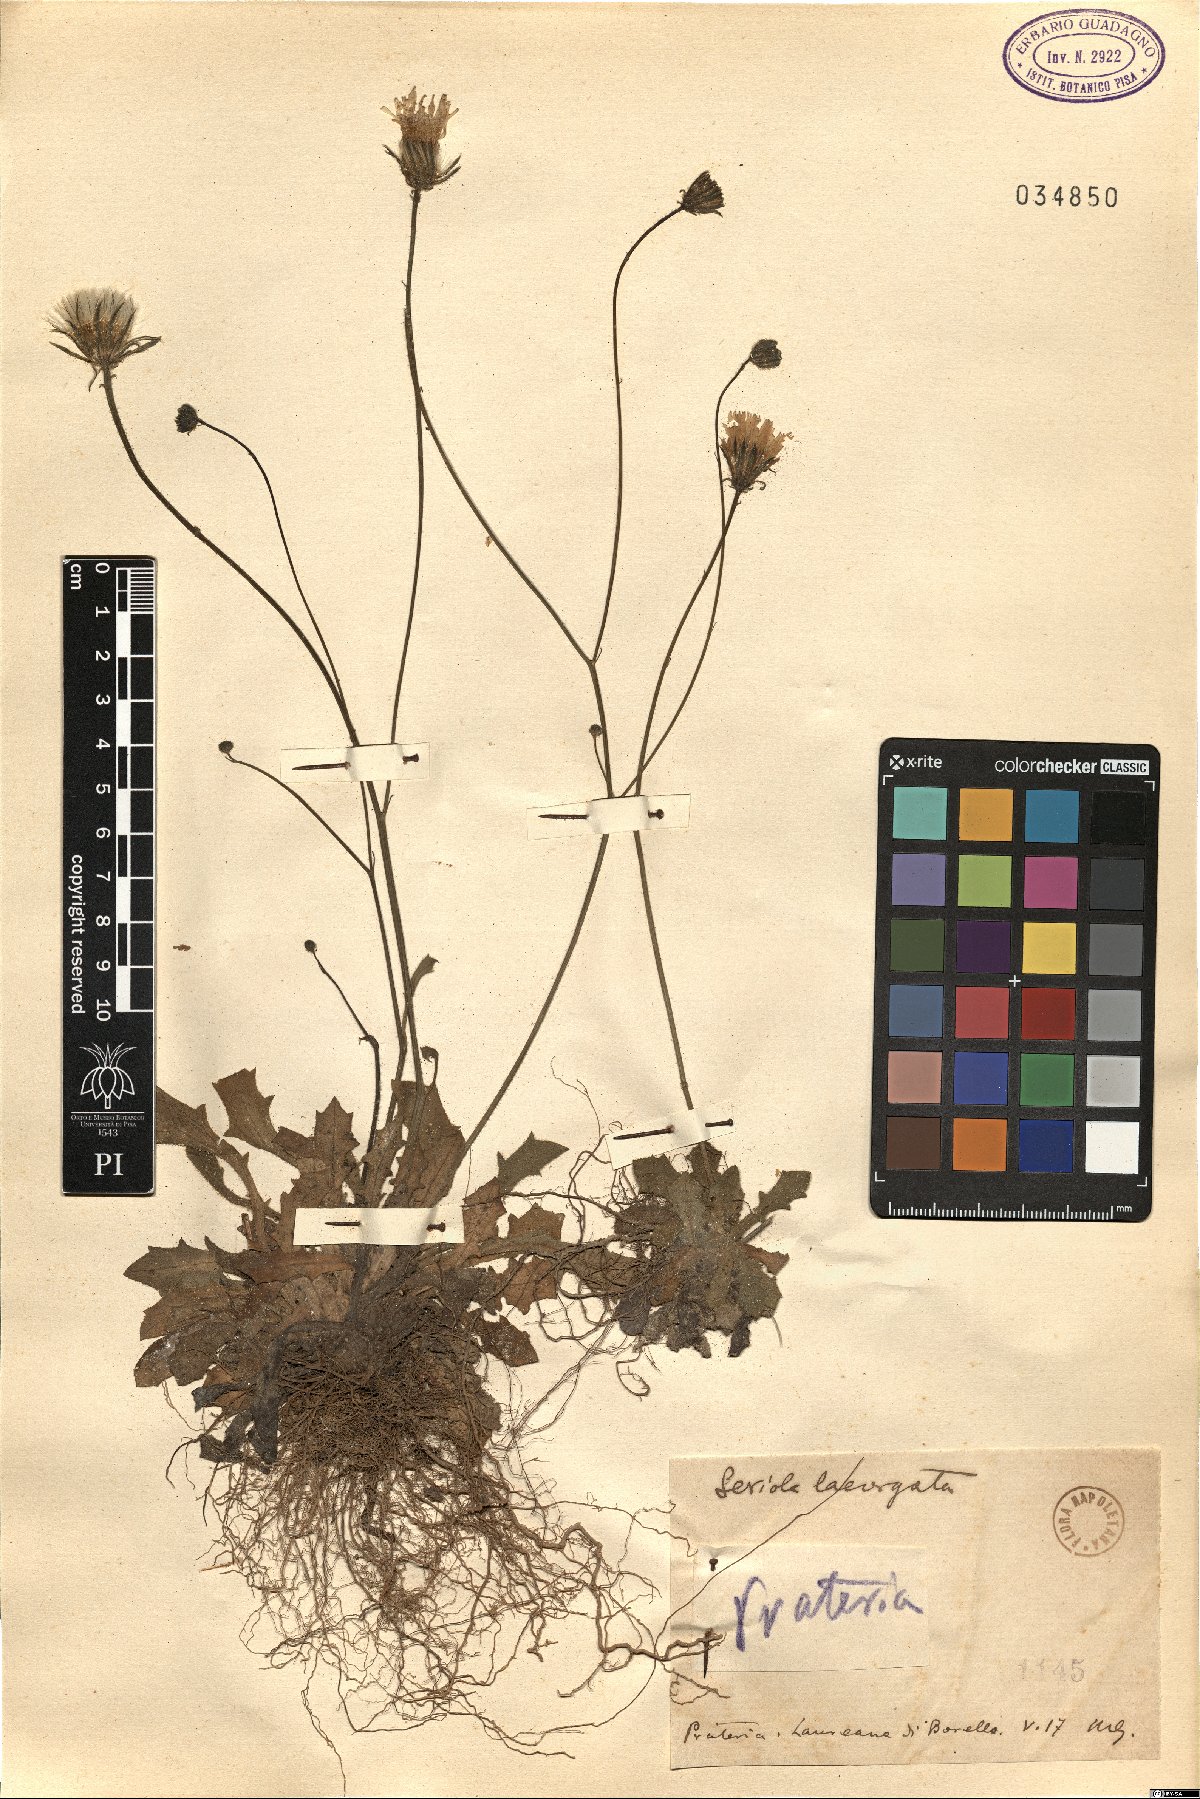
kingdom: Plantae
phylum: Tracheophyta
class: Magnoliopsida
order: Asterales
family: Asteraceae
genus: Achyrophorus
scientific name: Achyrophorus laevigatus
